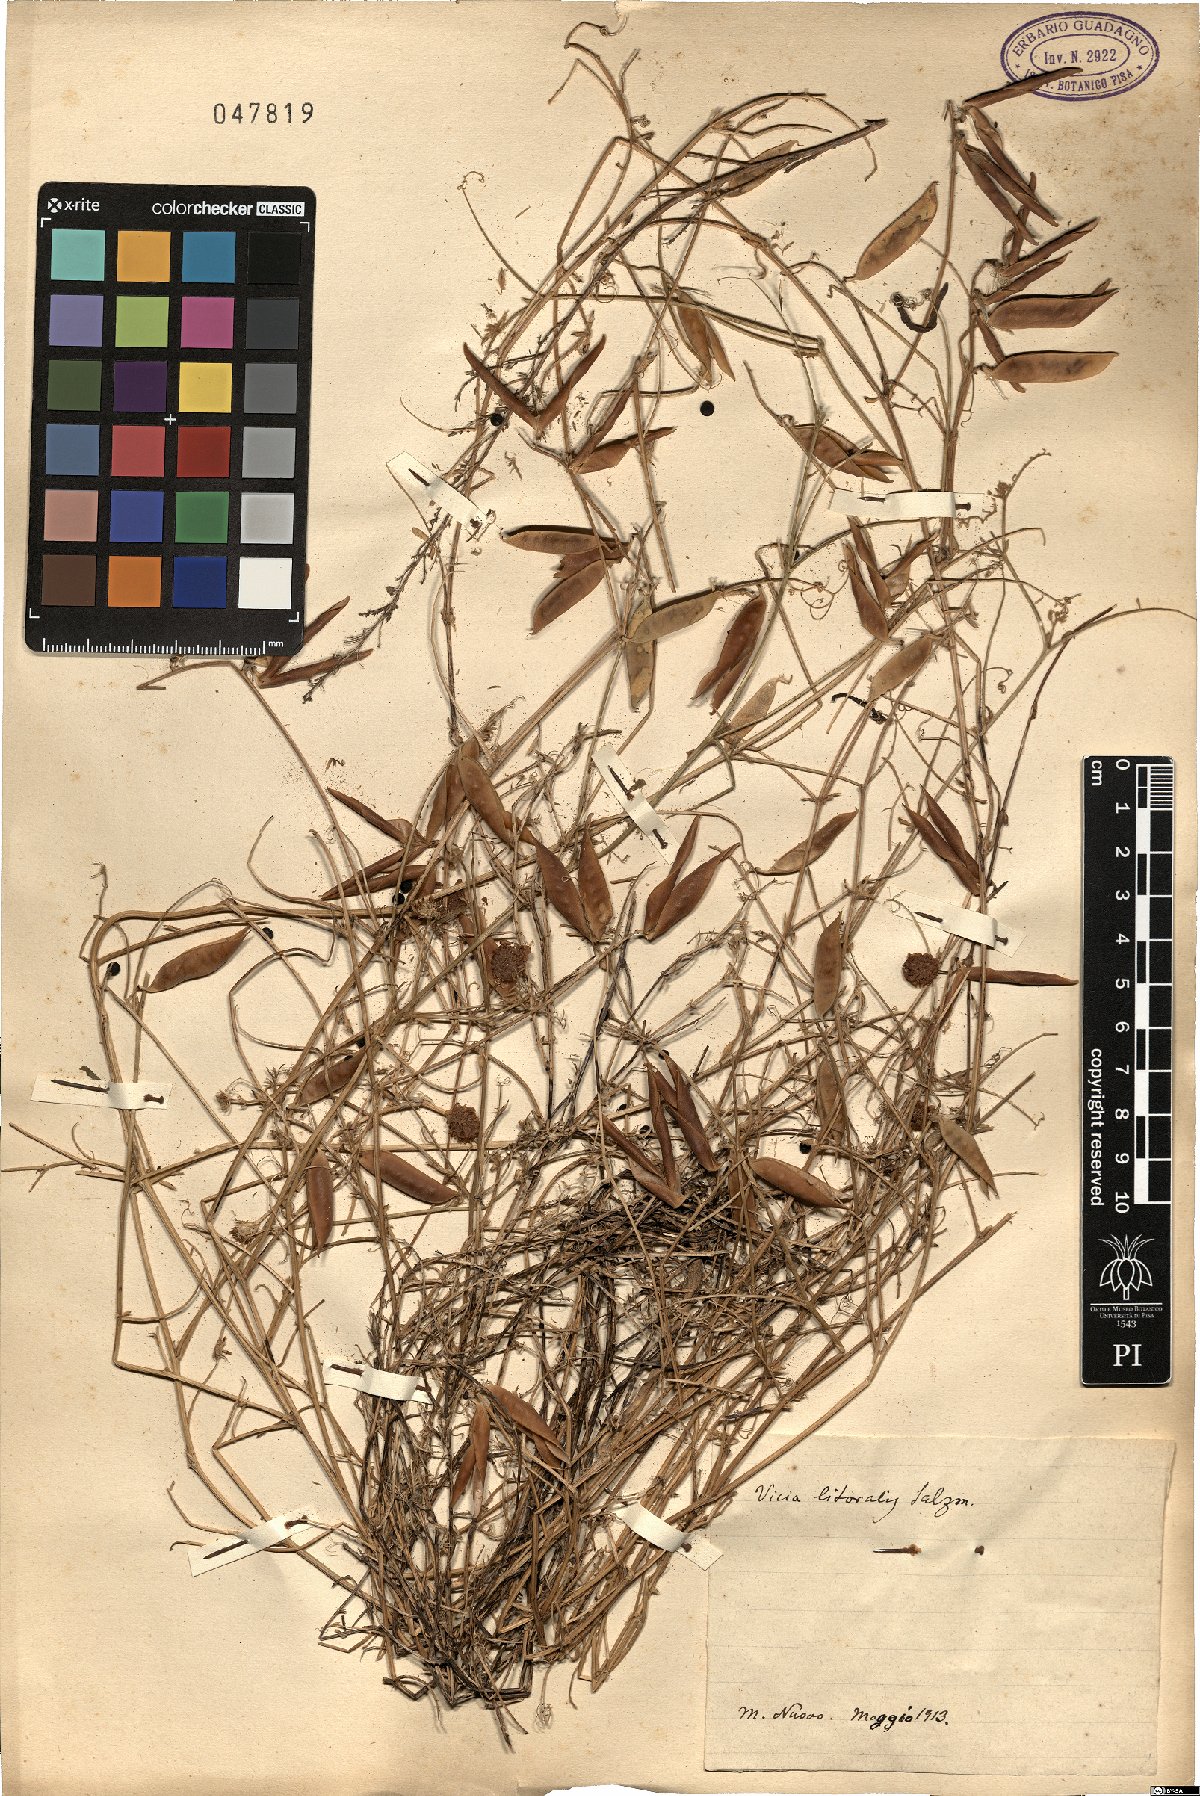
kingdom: Plantae
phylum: Tracheophyta
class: Magnoliopsida
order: Fabales
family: Fabaceae
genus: Vicia
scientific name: Vicia villosa
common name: Fodder vetch
